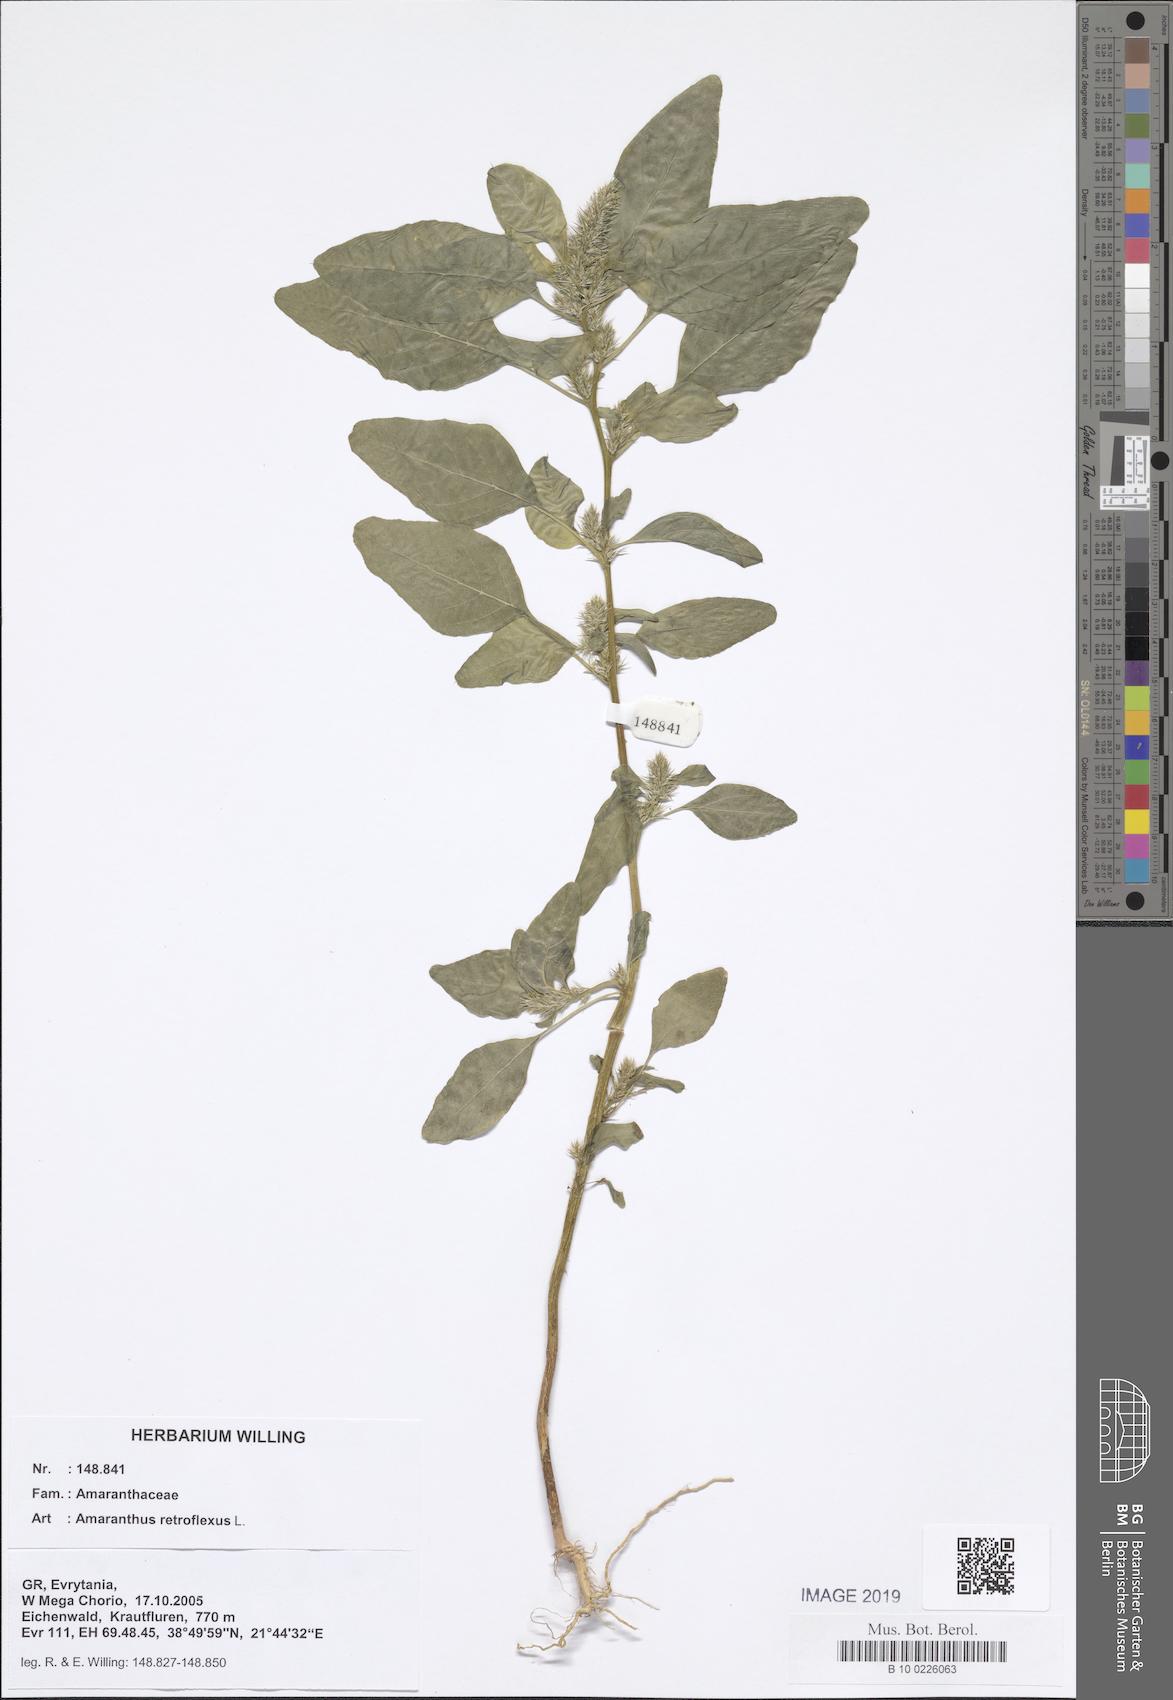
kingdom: Plantae
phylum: Tracheophyta
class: Magnoliopsida
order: Caryophyllales
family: Amaranthaceae
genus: Amaranthus
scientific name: Amaranthus retroflexus
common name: Redroot amaranth
